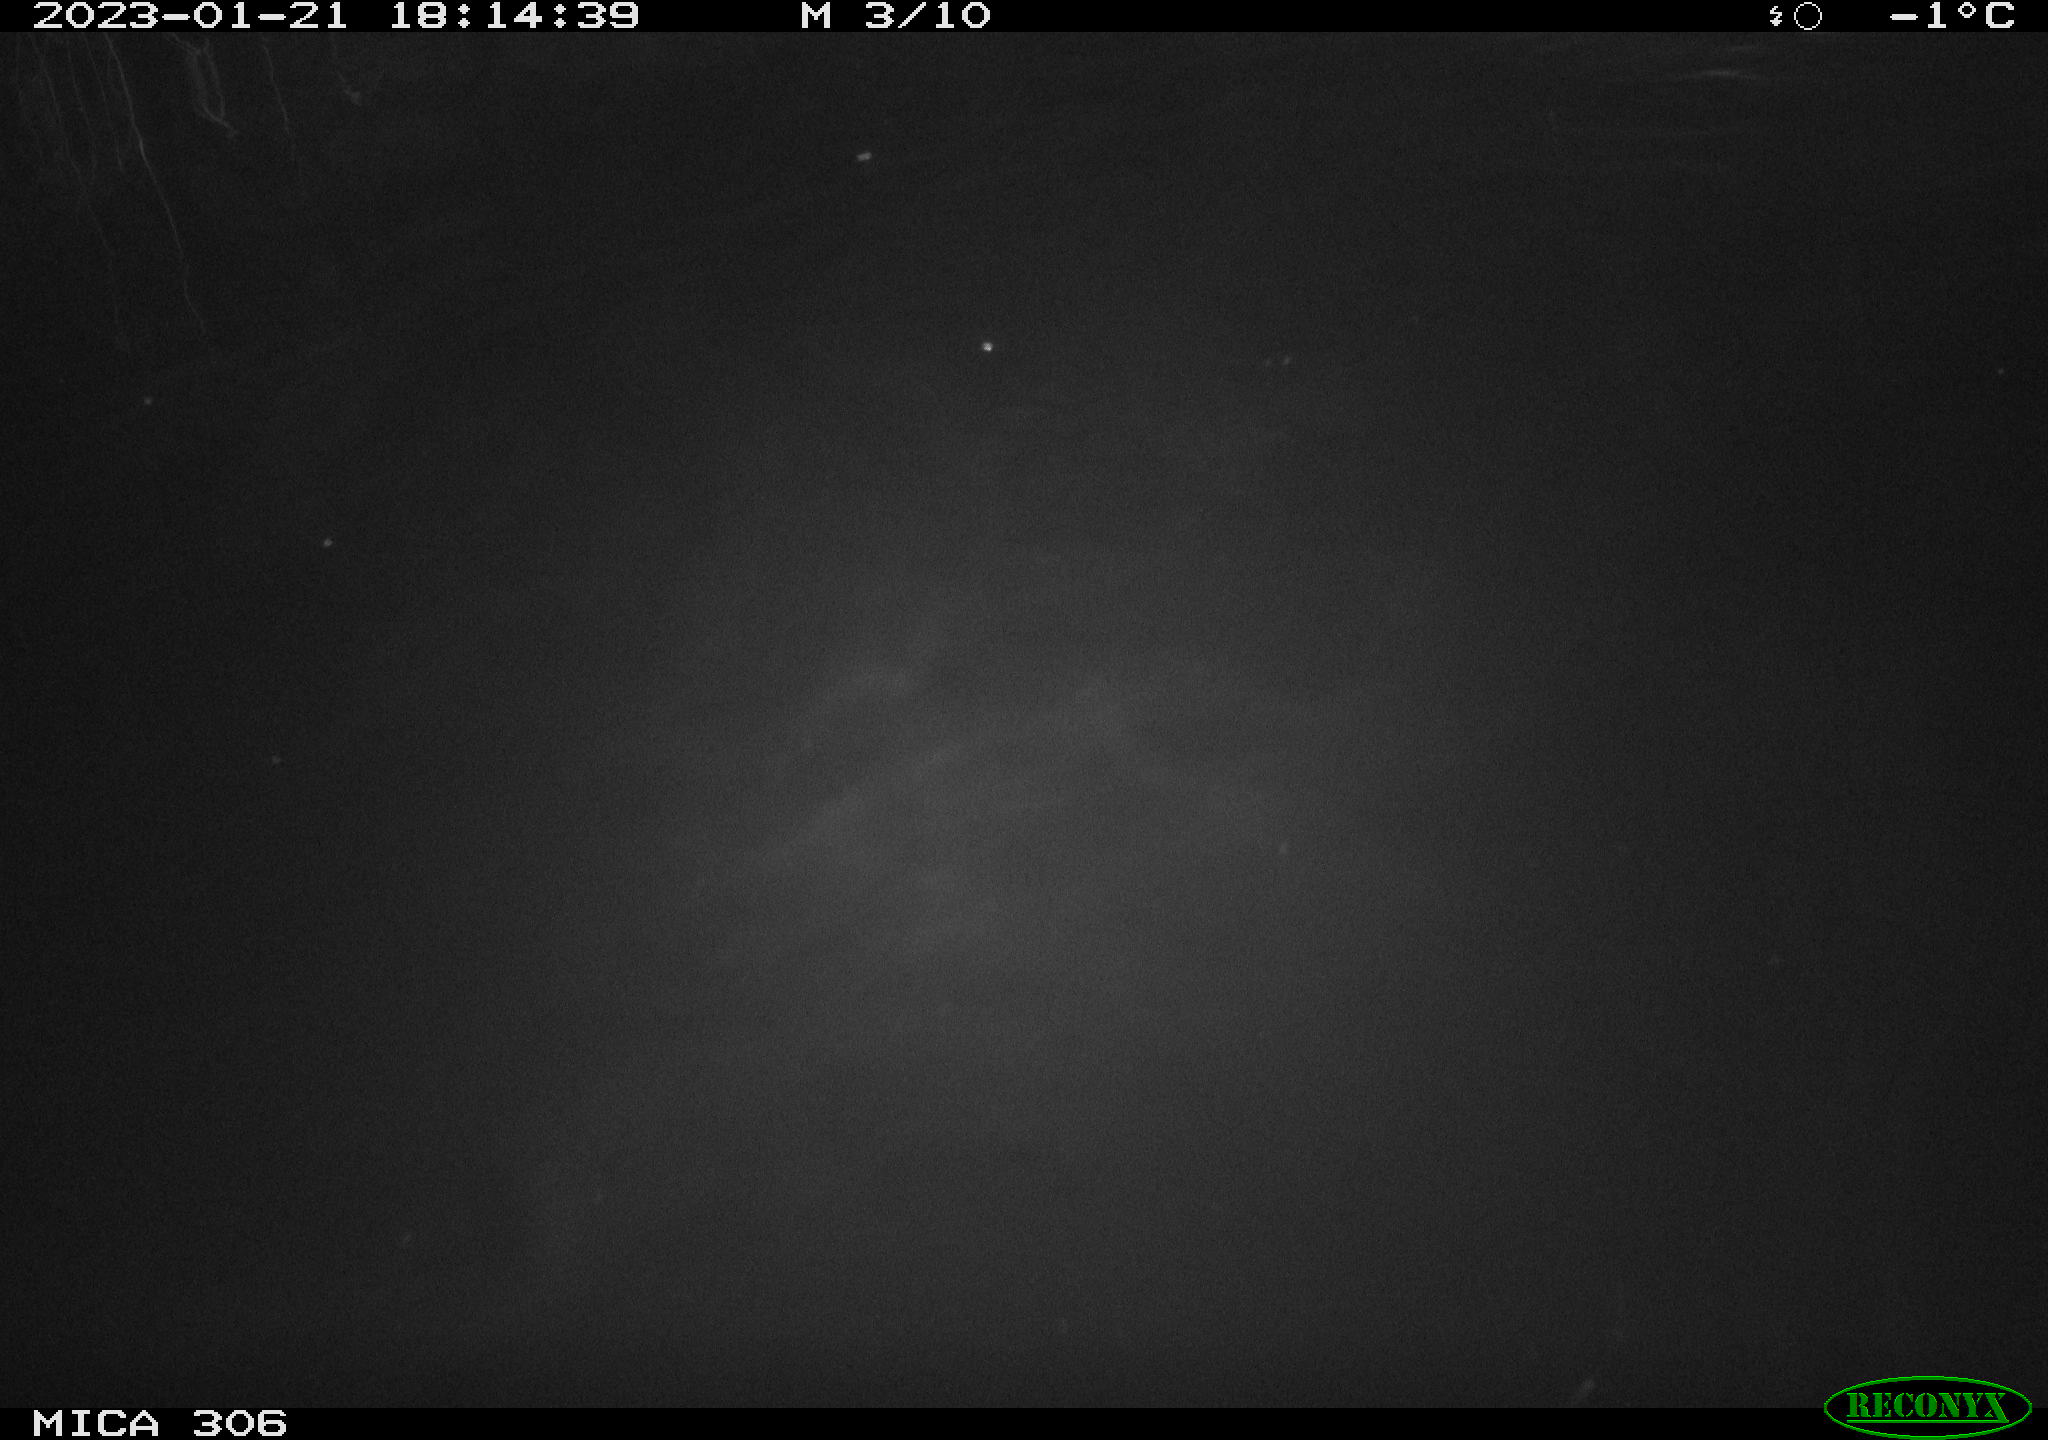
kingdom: Animalia
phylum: Chordata
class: Mammalia
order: Rodentia
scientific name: Rodentia
